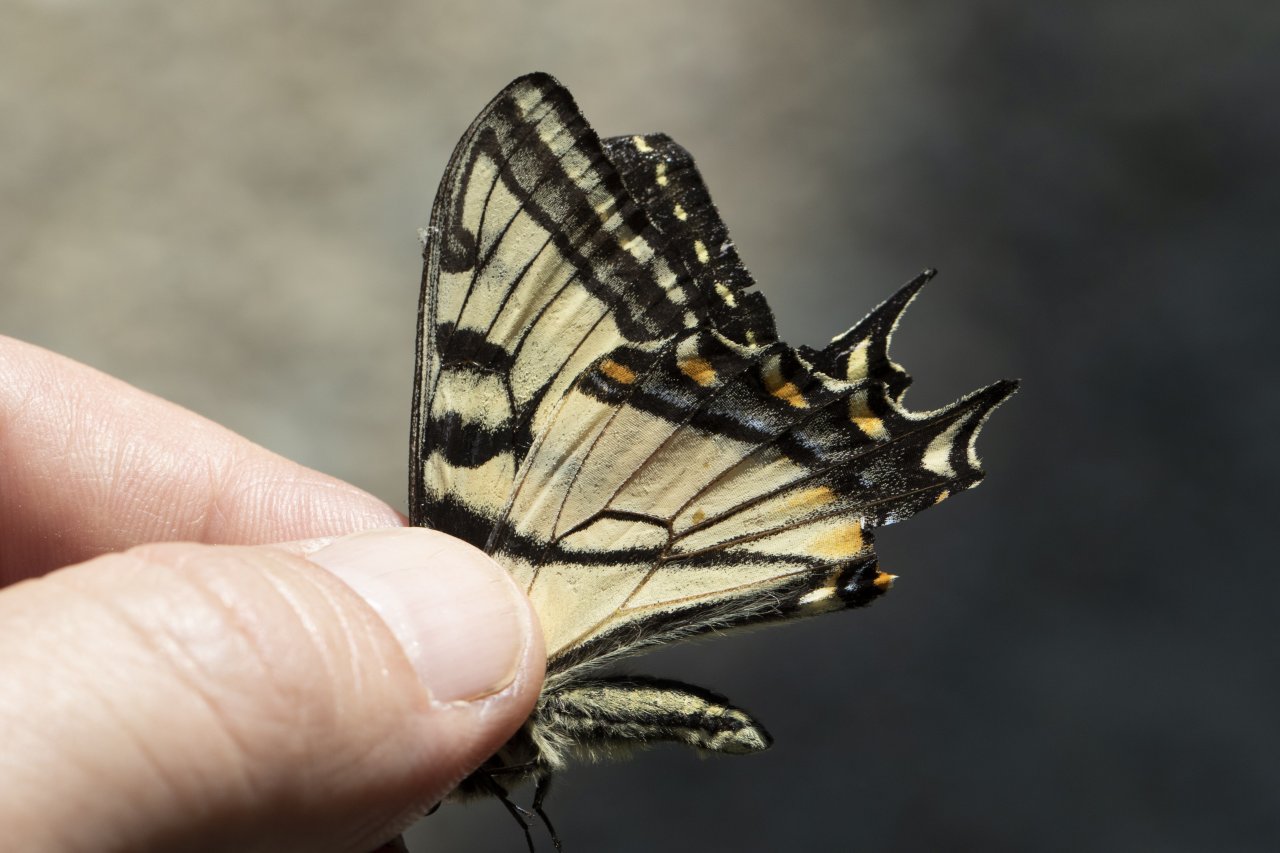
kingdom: Animalia
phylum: Arthropoda
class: Insecta
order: Lepidoptera
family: Papilionidae
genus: Pterourus
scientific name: Pterourus canadensis
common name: Canadian Tiger Swallowtail
